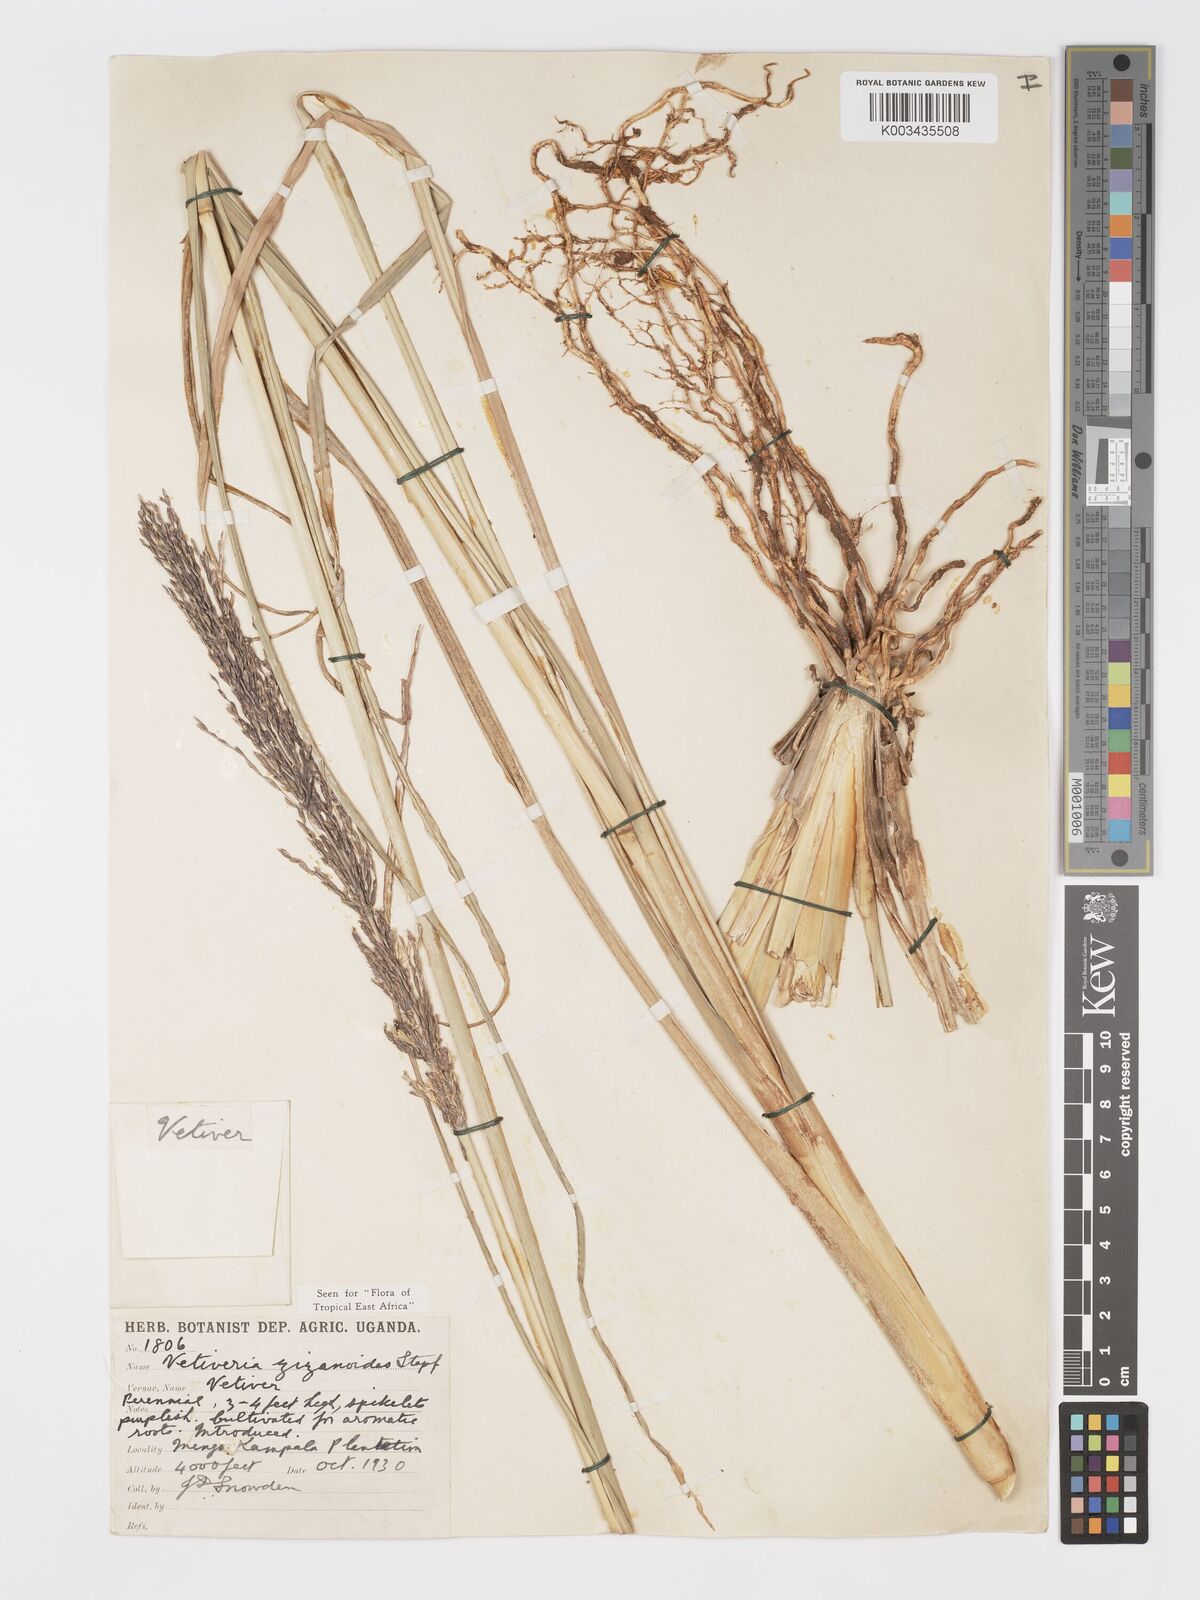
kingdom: Plantae
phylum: Tracheophyta
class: Liliopsida
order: Poales
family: Poaceae
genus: Chrysopogon
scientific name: Chrysopogon zizanioides
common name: False beardgrass
